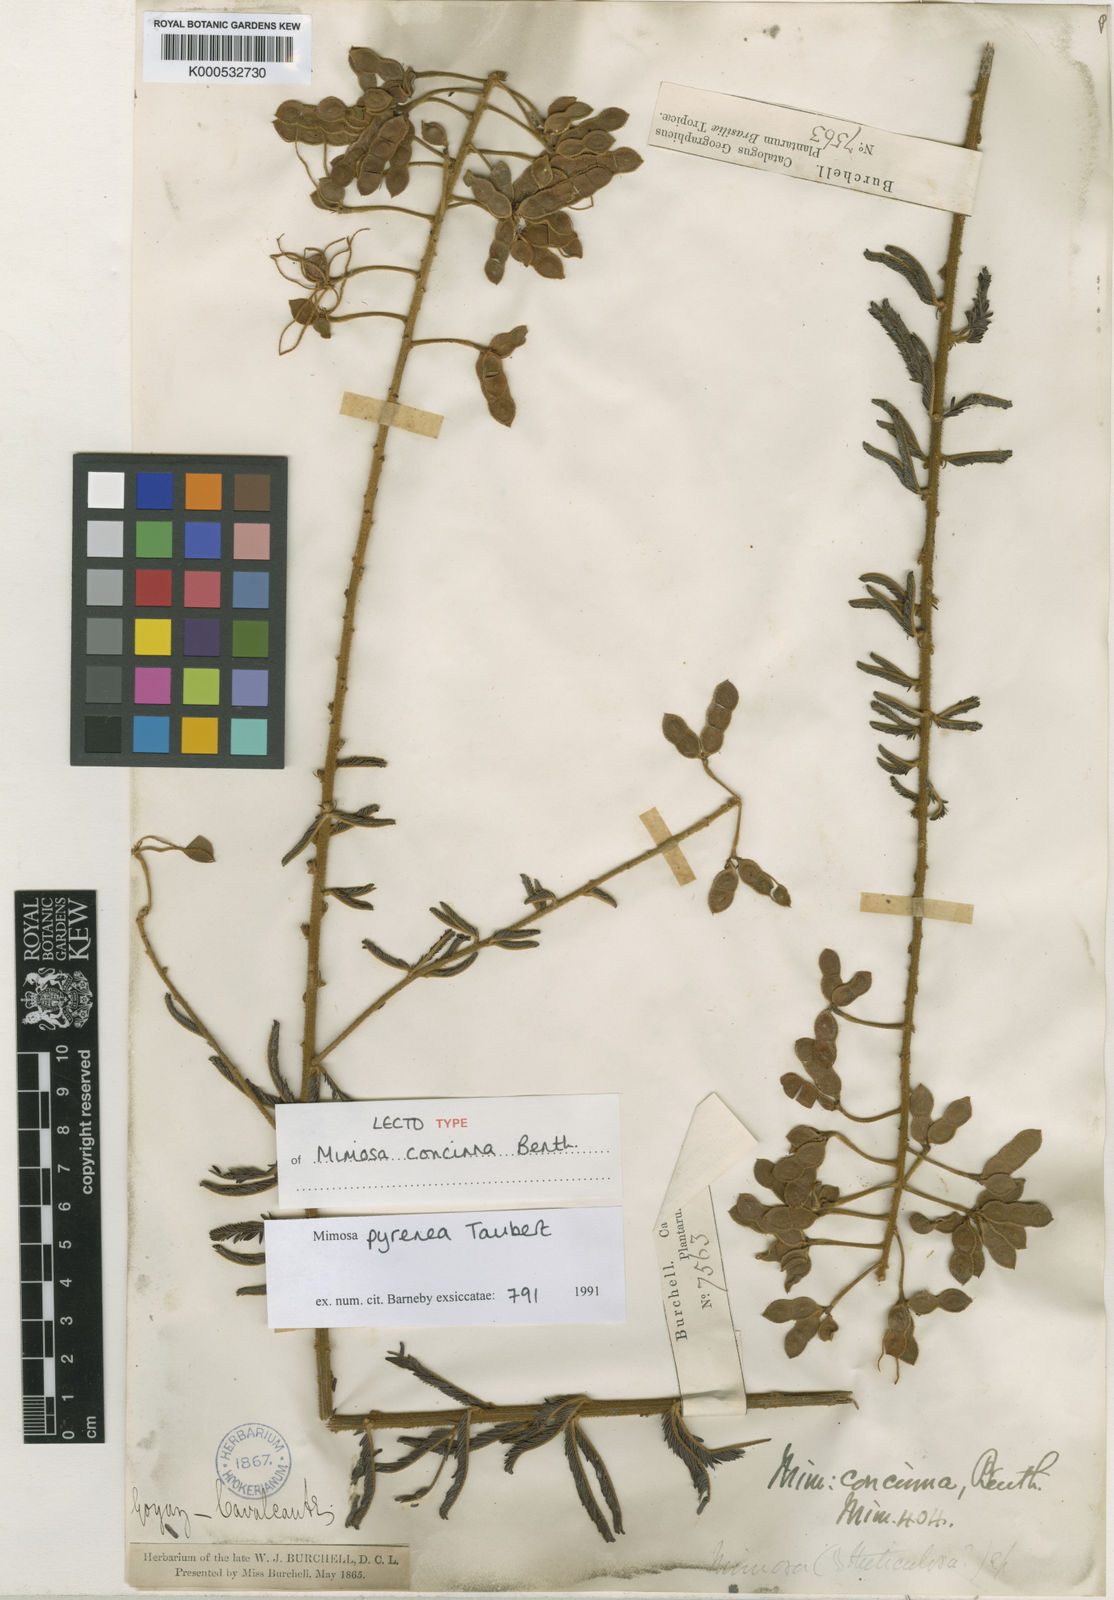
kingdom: Plantae
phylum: Tracheophyta
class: Magnoliopsida
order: Fabales
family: Fabaceae
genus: Mimosa
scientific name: Mimosa pyrenea
